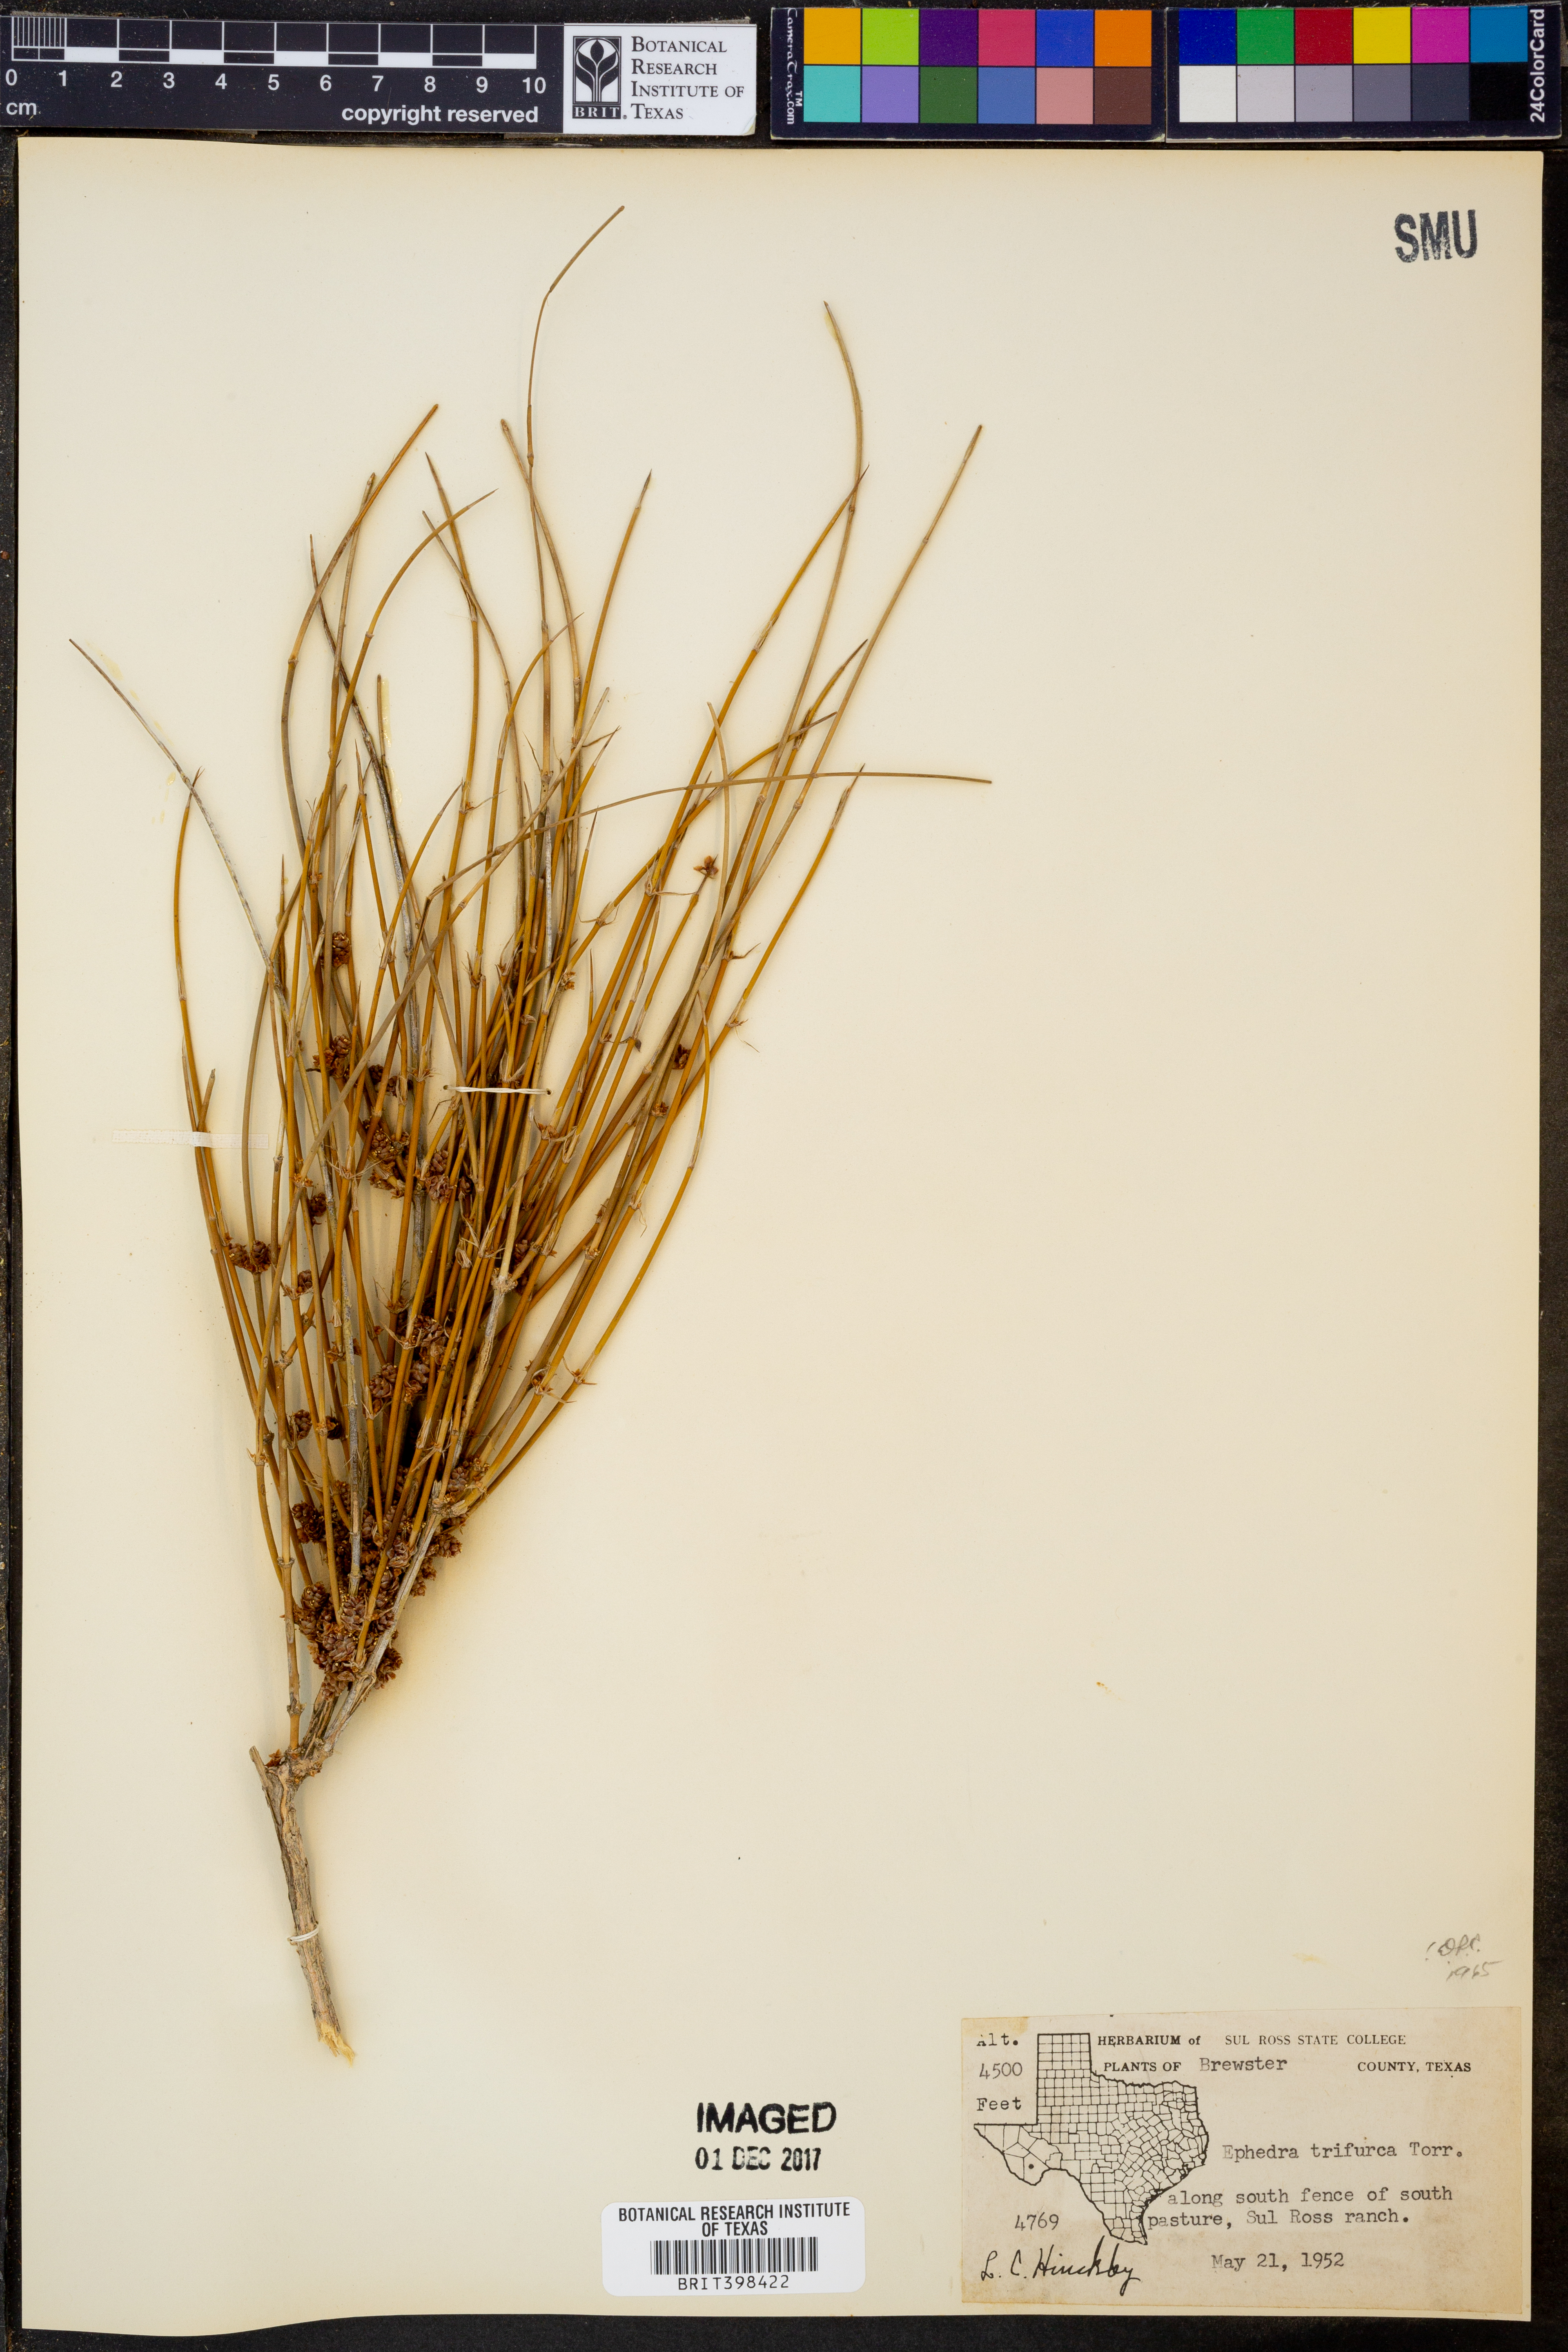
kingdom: Plantae
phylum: Tracheophyta
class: Gnetopsida
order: Ephedrales
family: Ephedraceae
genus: Ephedra
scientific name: Ephedra trifurca
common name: Mexican-tea
